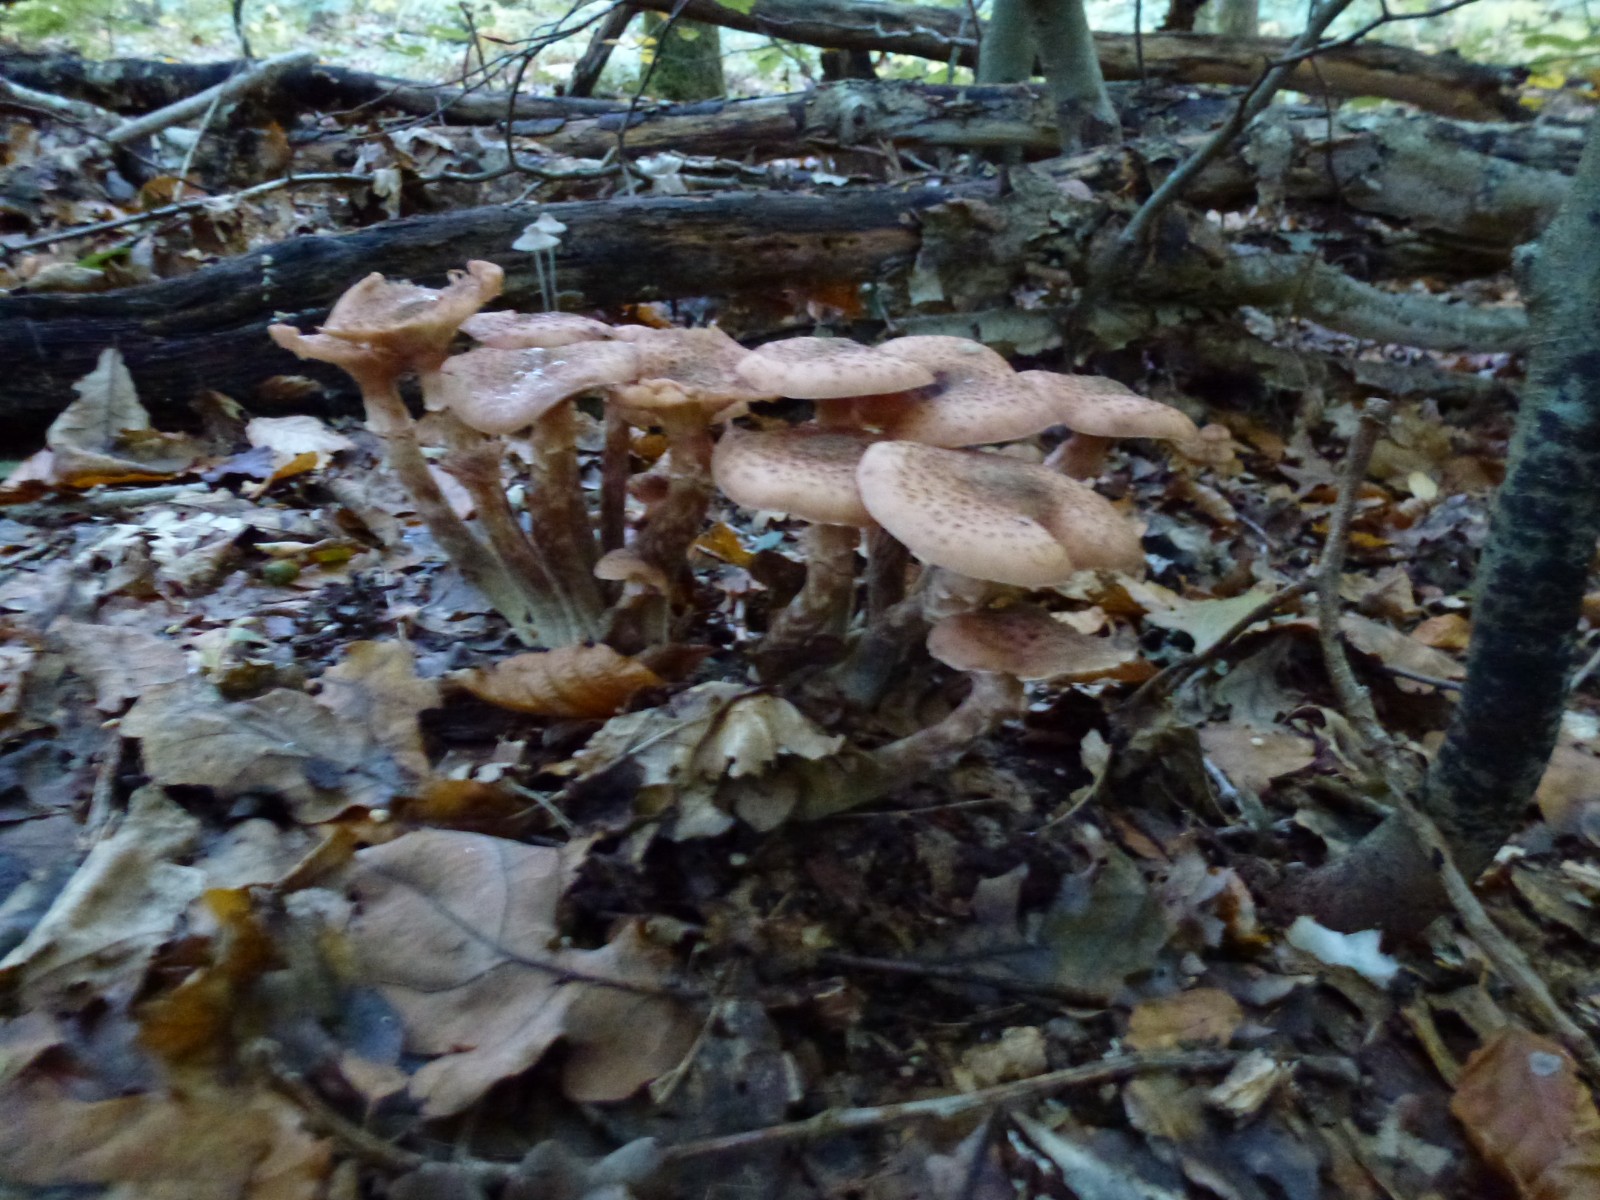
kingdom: Fungi
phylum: Basidiomycota
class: Agaricomycetes
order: Agaricales
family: Physalacriaceae
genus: Armillaria
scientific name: Armillaria ostoyae
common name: mørk honningsvamp
